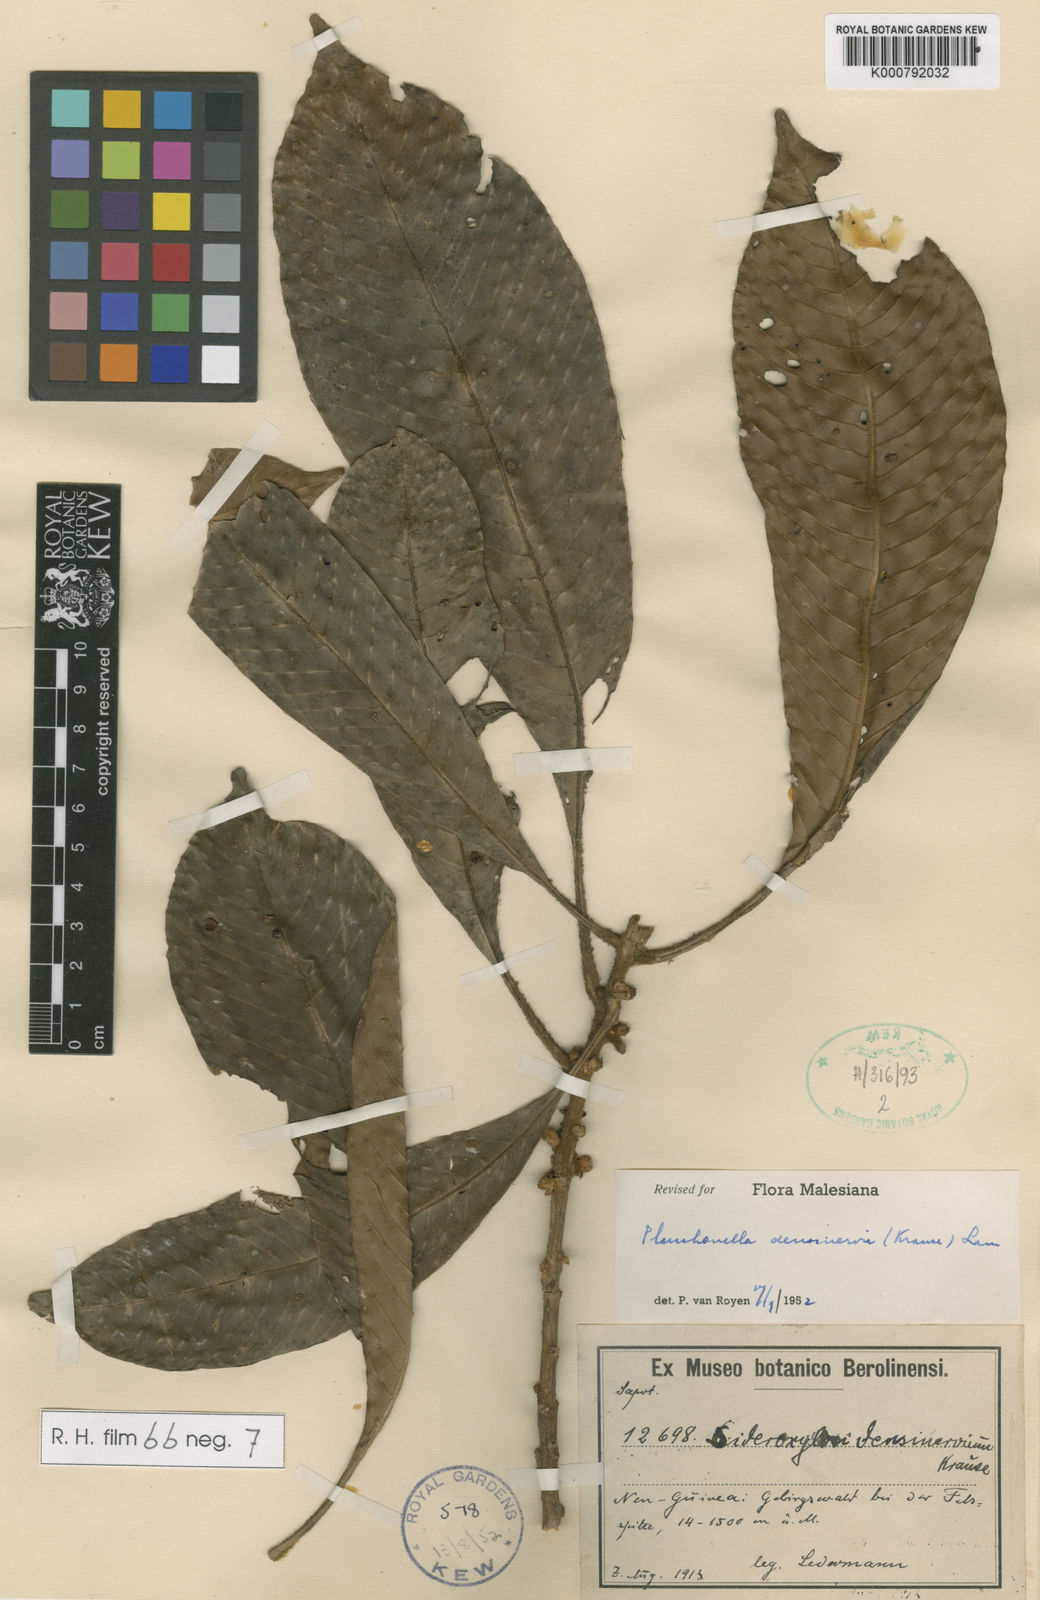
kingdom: Plantae
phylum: Tracheophyta
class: Magnoliopsida
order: Ericales
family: Sapotaceae
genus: Pleioluma
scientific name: Pleioluma densinervia
